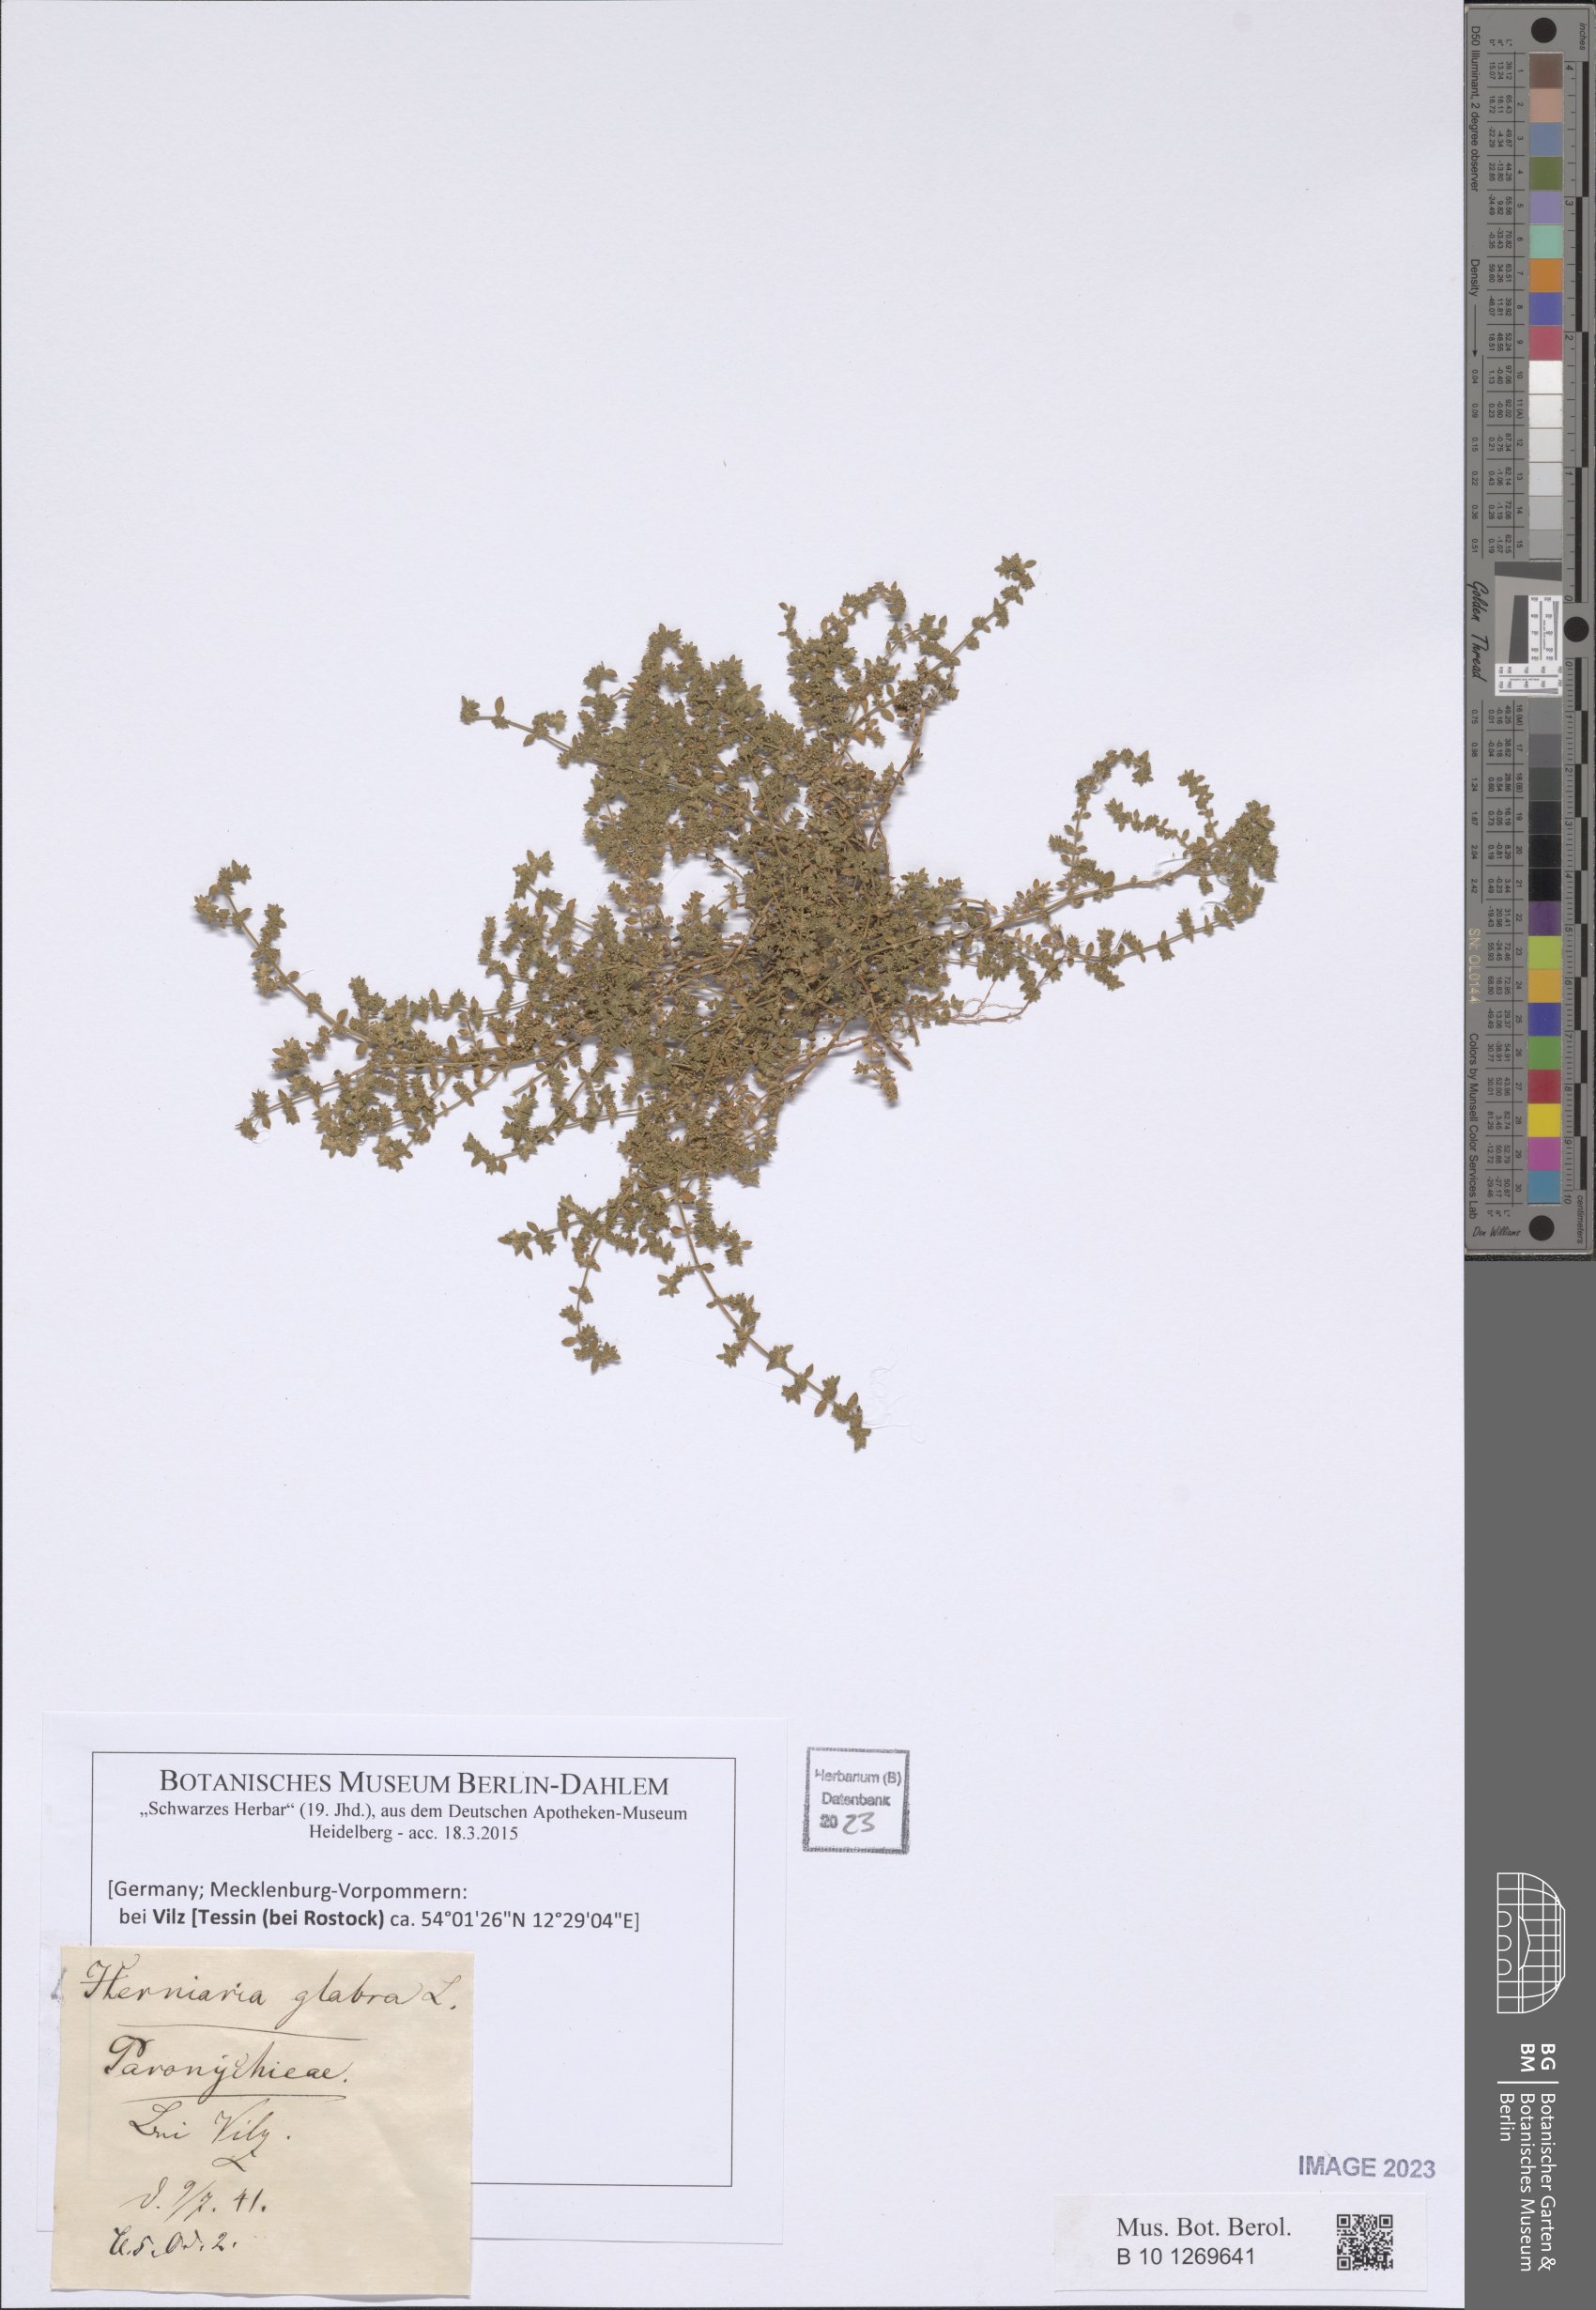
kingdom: Plantae
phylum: Tracheophyta
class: Magnoliopsida
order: Caryophyllales
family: Caryophyllaceae
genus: Herniaria
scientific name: Herniaria glabra
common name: Smooth rupturewort
